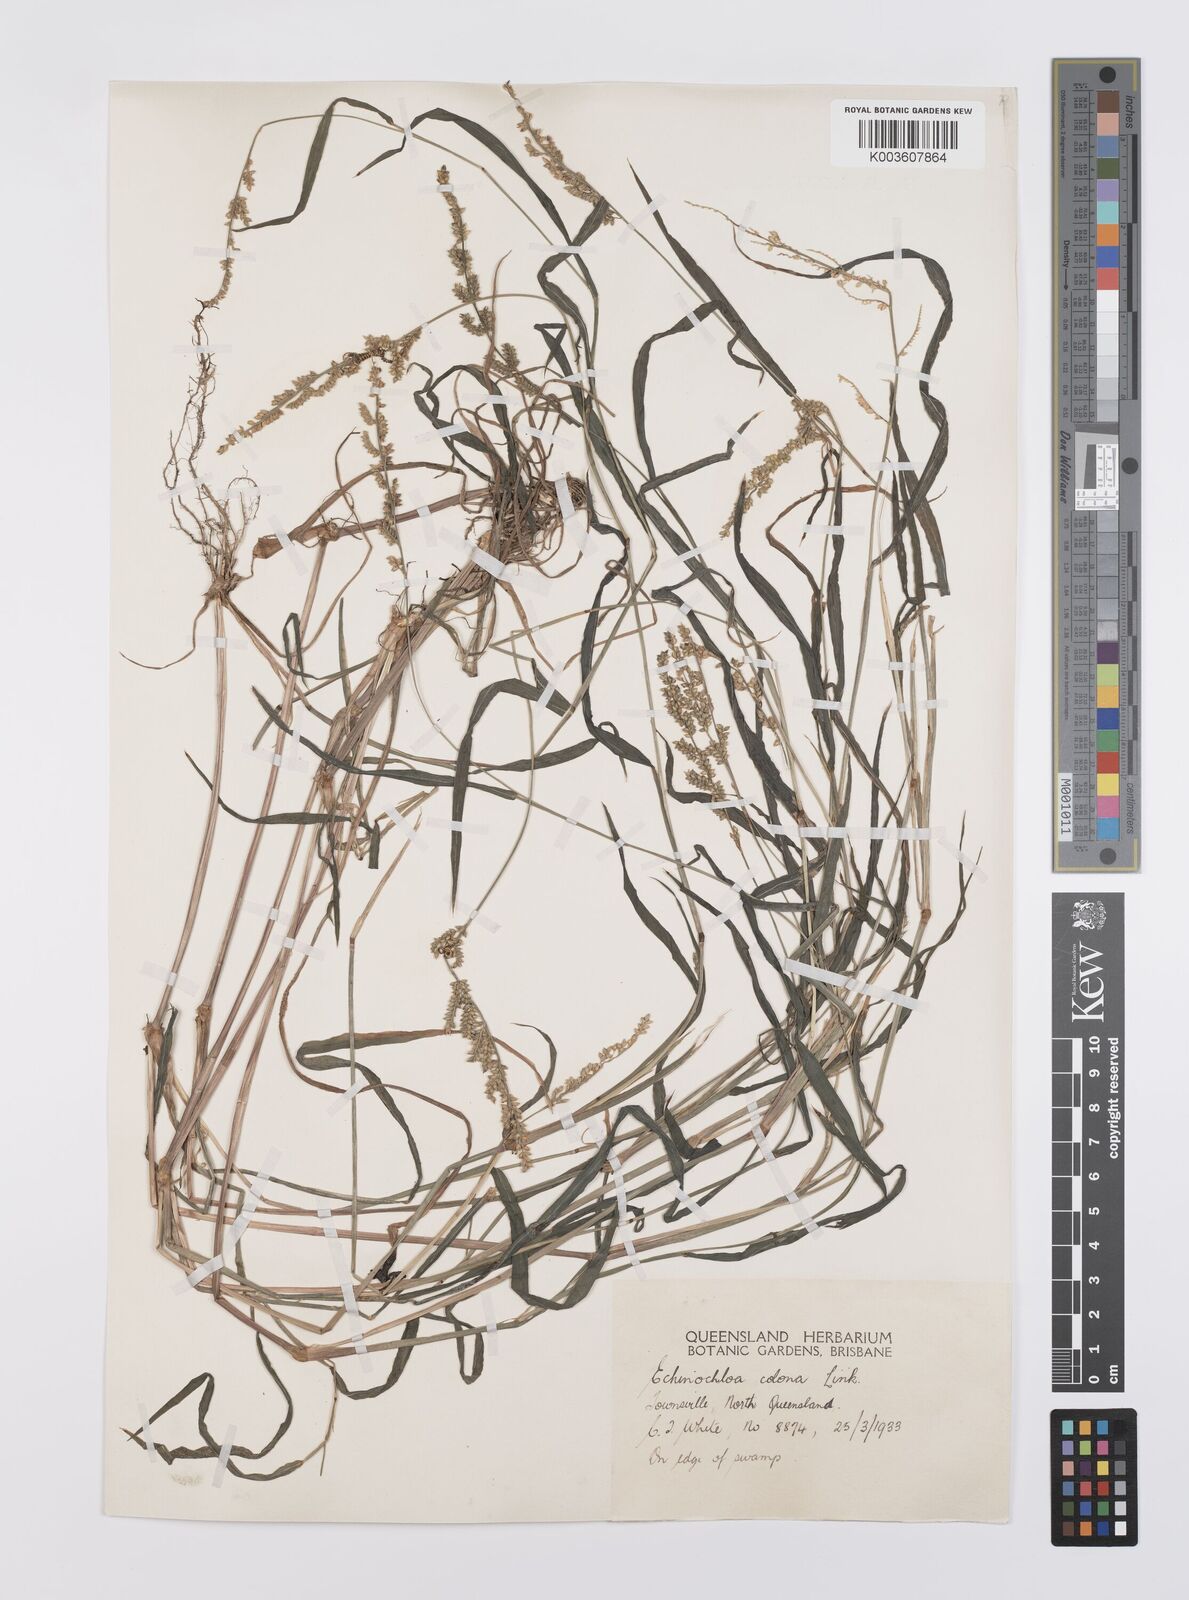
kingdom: Plantae
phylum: Tracheophyta
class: Liliopsida
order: Poales
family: Poaceae
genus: Echinochloa
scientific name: Echinochloa colonum
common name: Jungle rice
